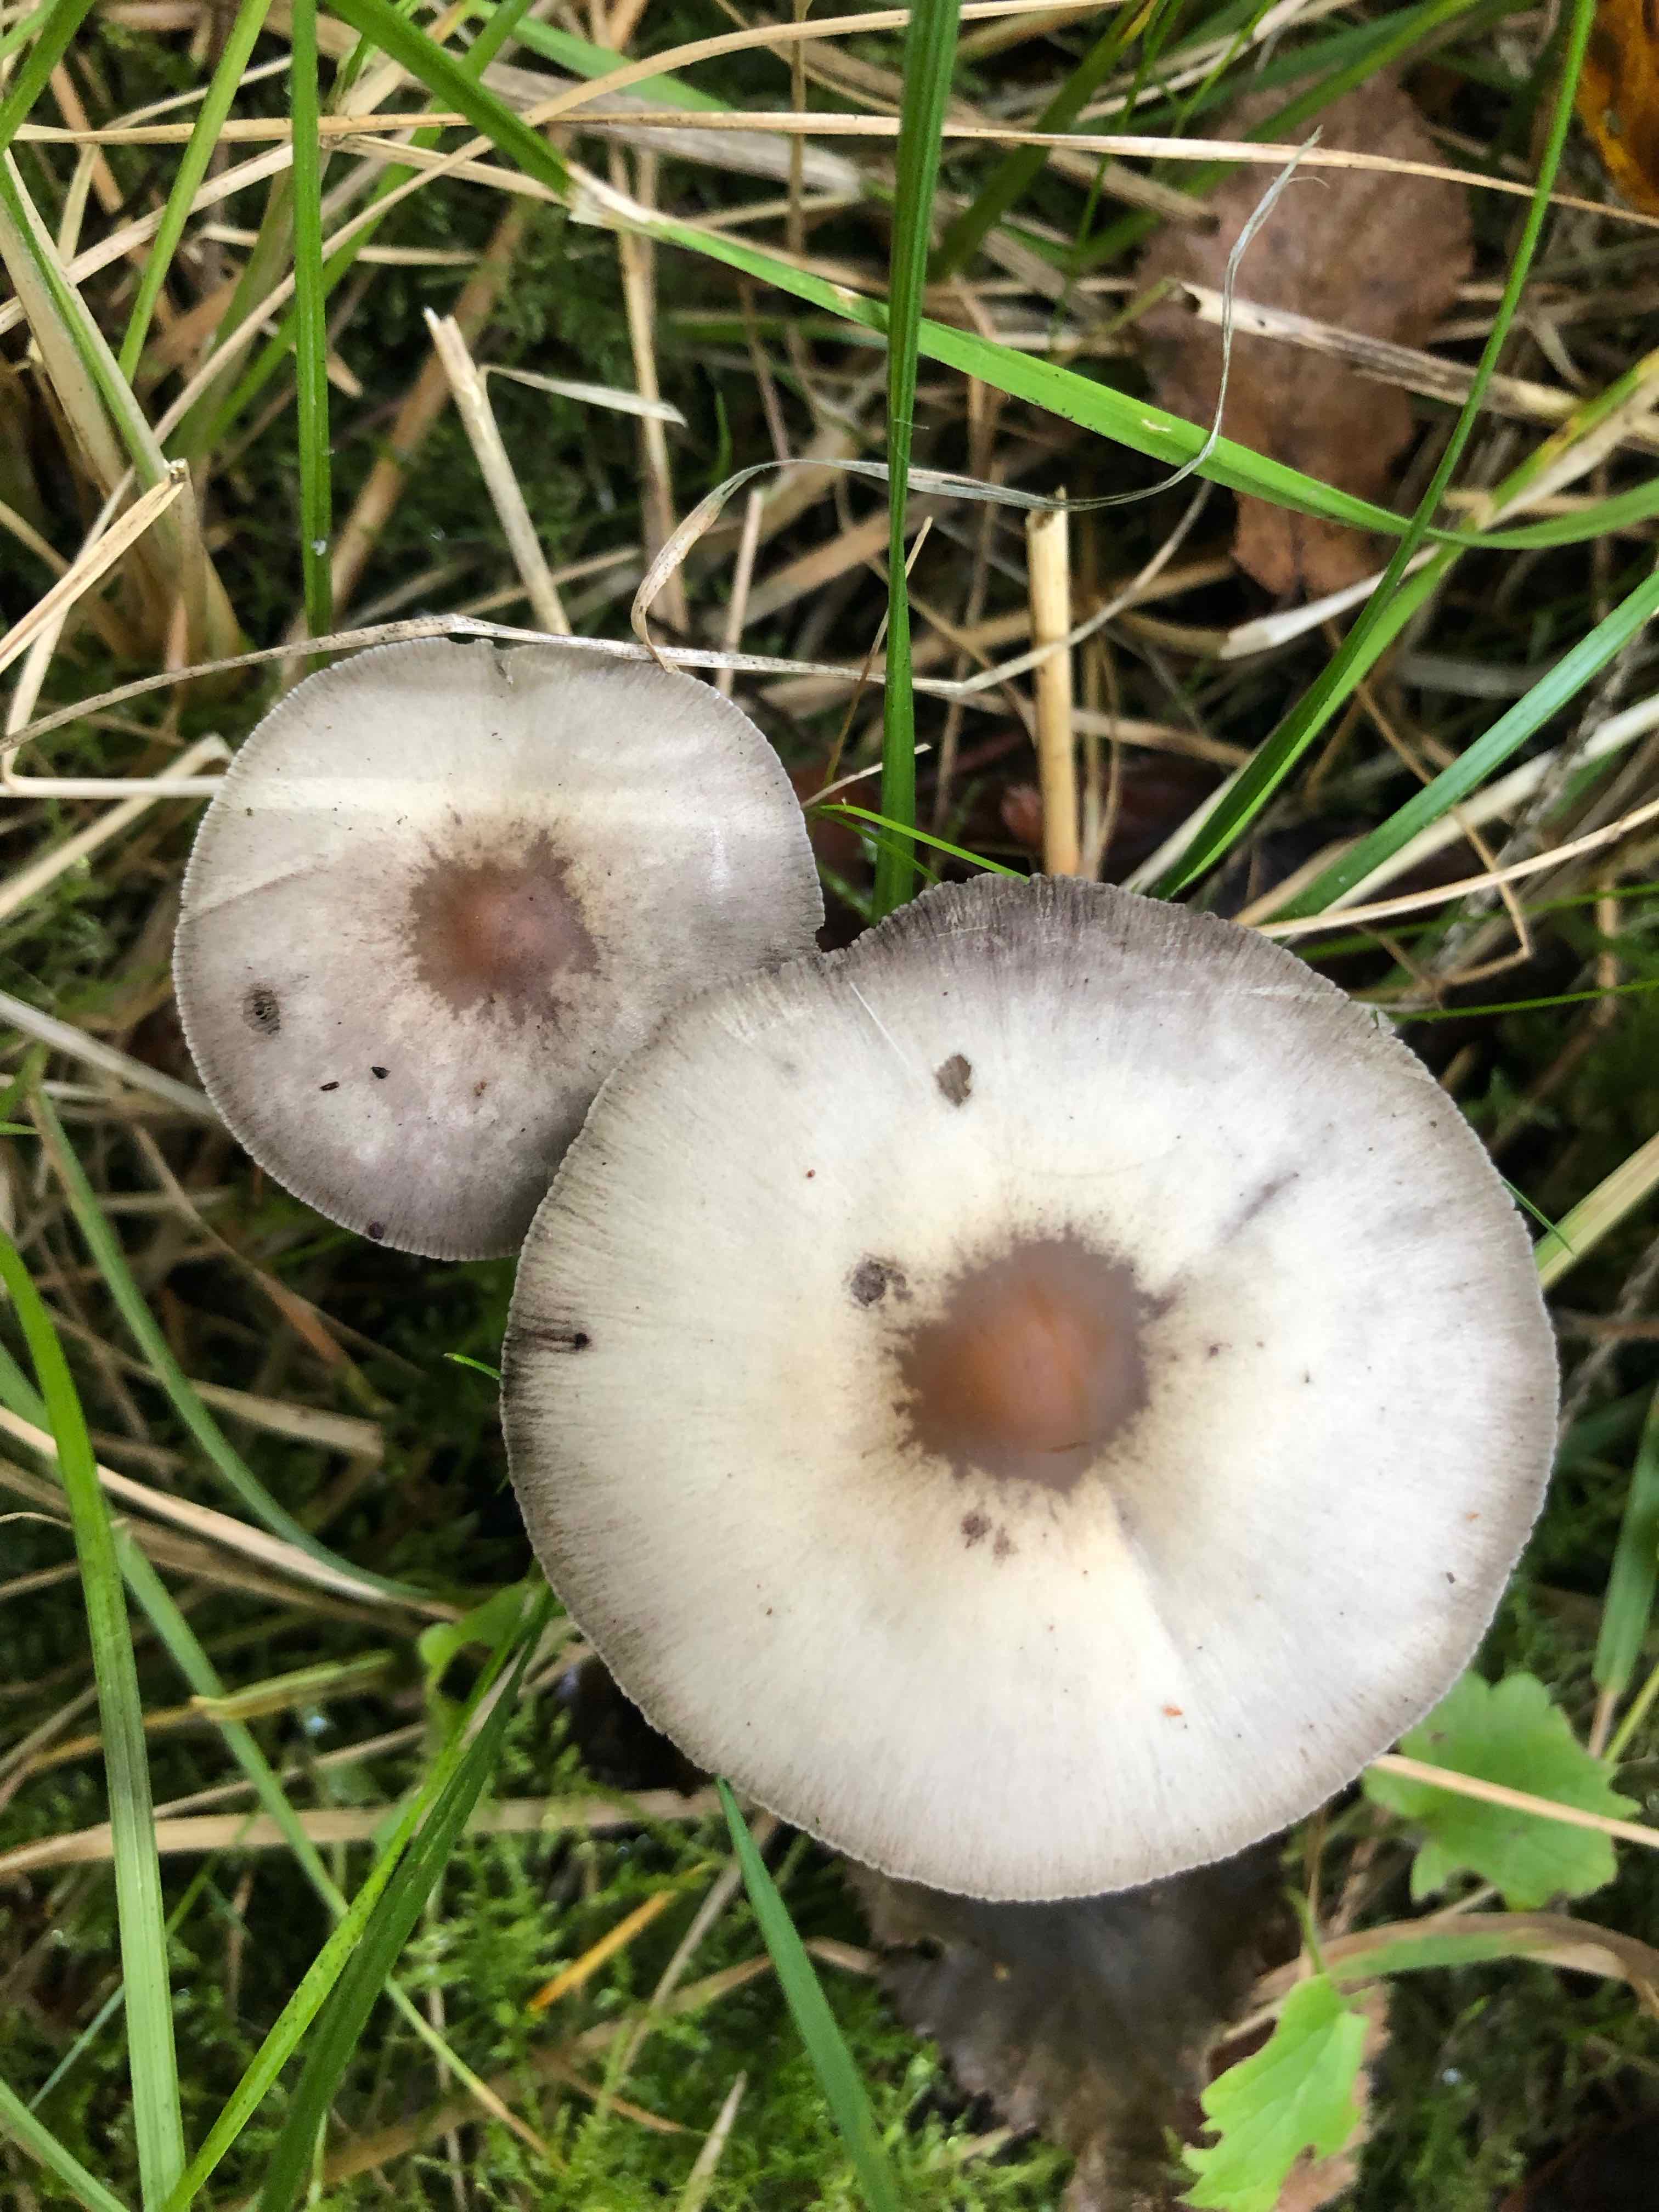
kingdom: Fungi
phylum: Basidiomycota
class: Agaricomycetes
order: Agaricales
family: Psathyrellaceae
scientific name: Psathyrellaceae
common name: mørkhatfamilien
